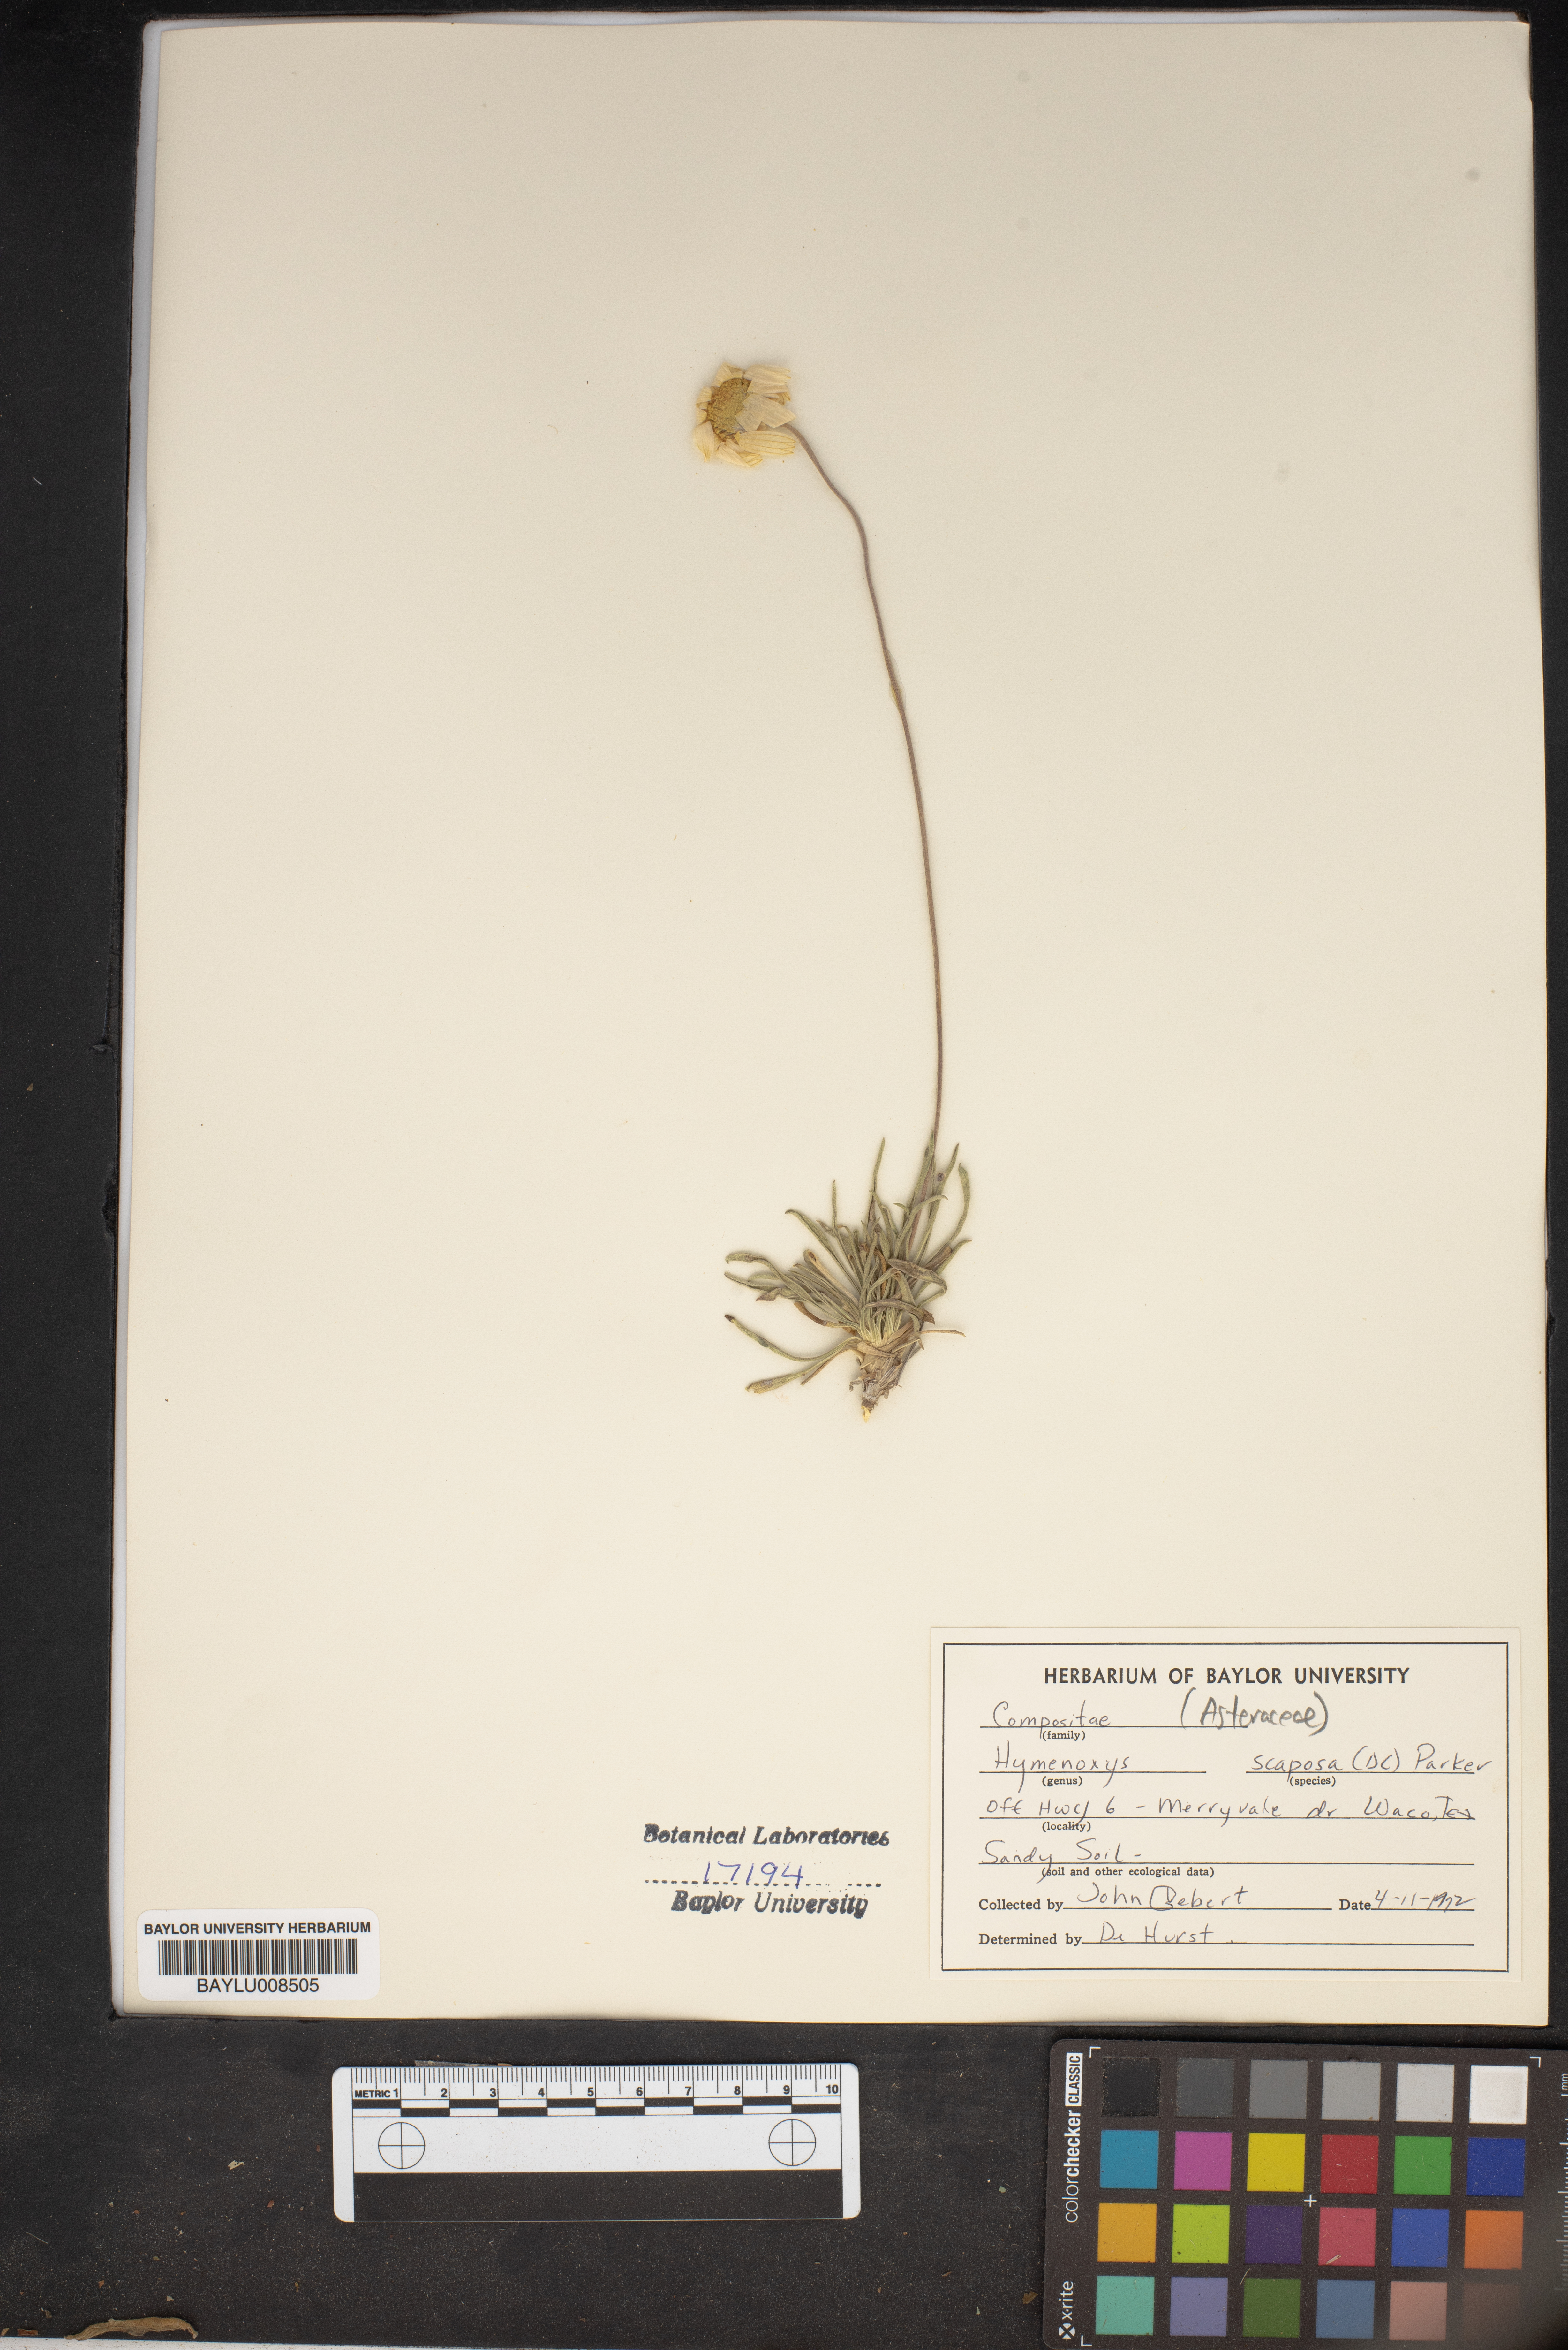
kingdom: Plantae
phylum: Tracheophyta
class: Magnoliopsida
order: Asterales
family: Asteraceae
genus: Tetraneuris
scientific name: Tetraneuris scaposa
